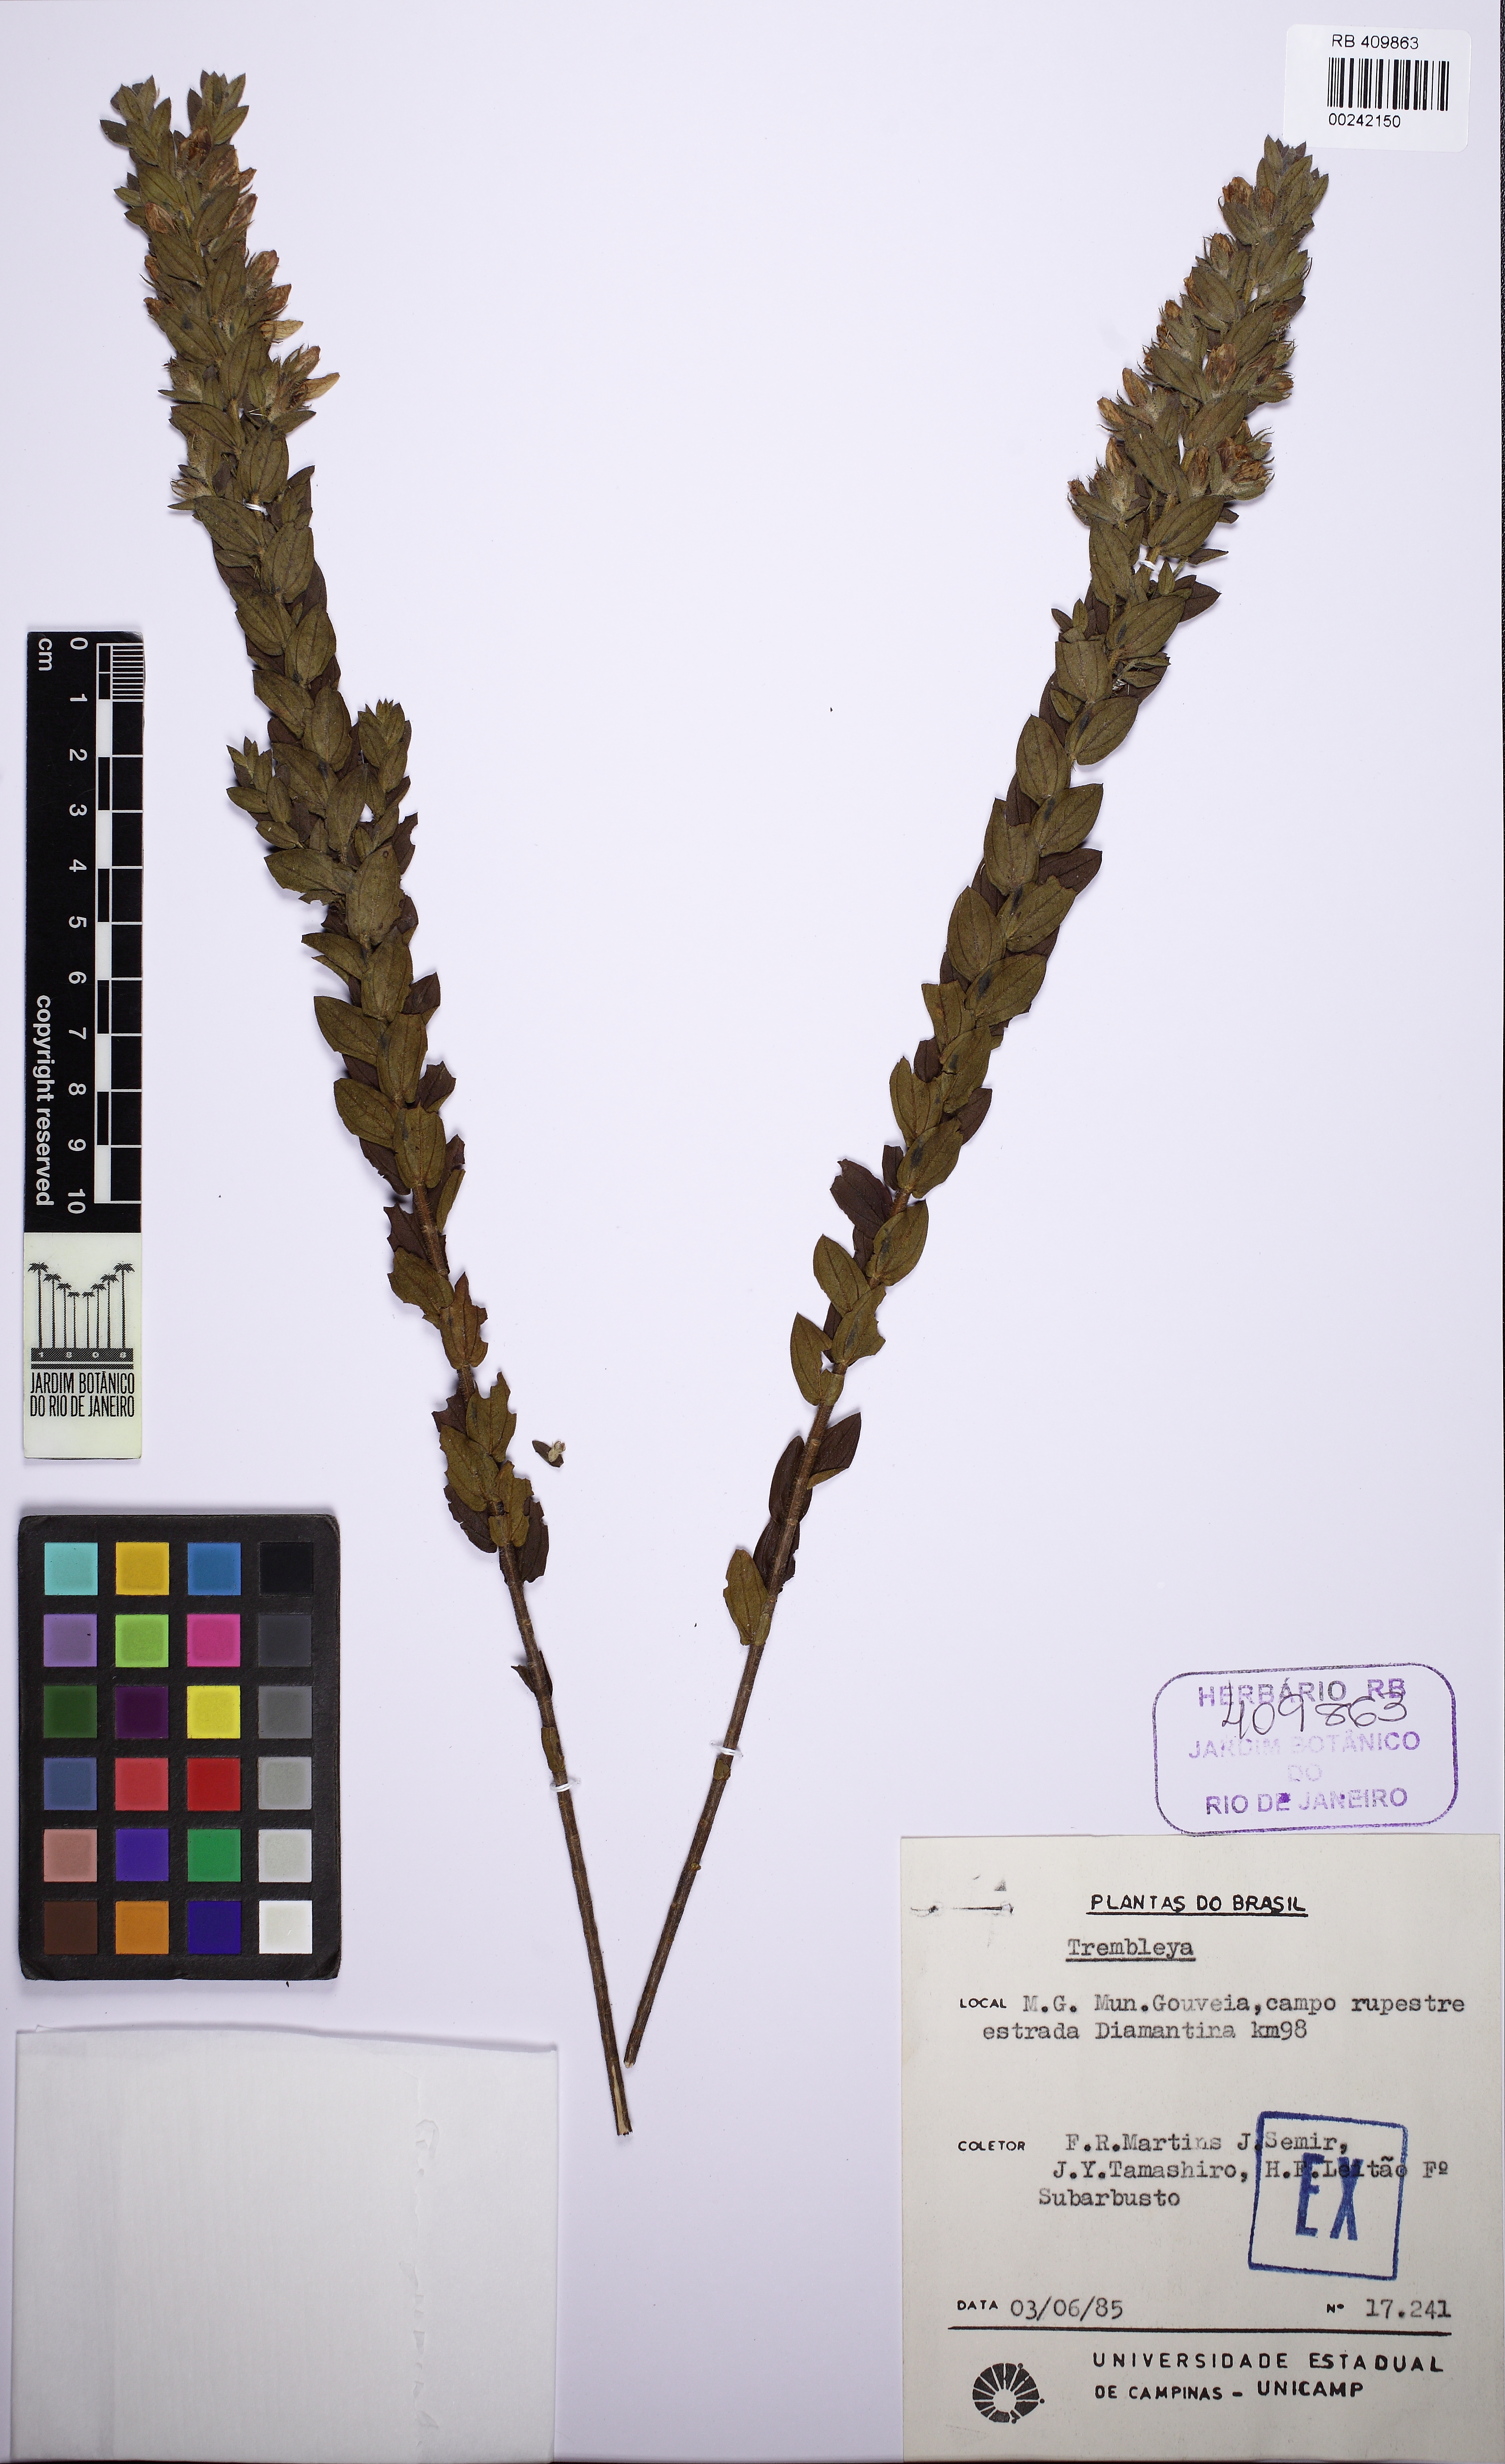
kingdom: Plantae
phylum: Tracheophyta
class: Magnoliopsida
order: Myrtales
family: Melastomataceae
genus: Microlicia
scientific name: Microlicia macrophylla
